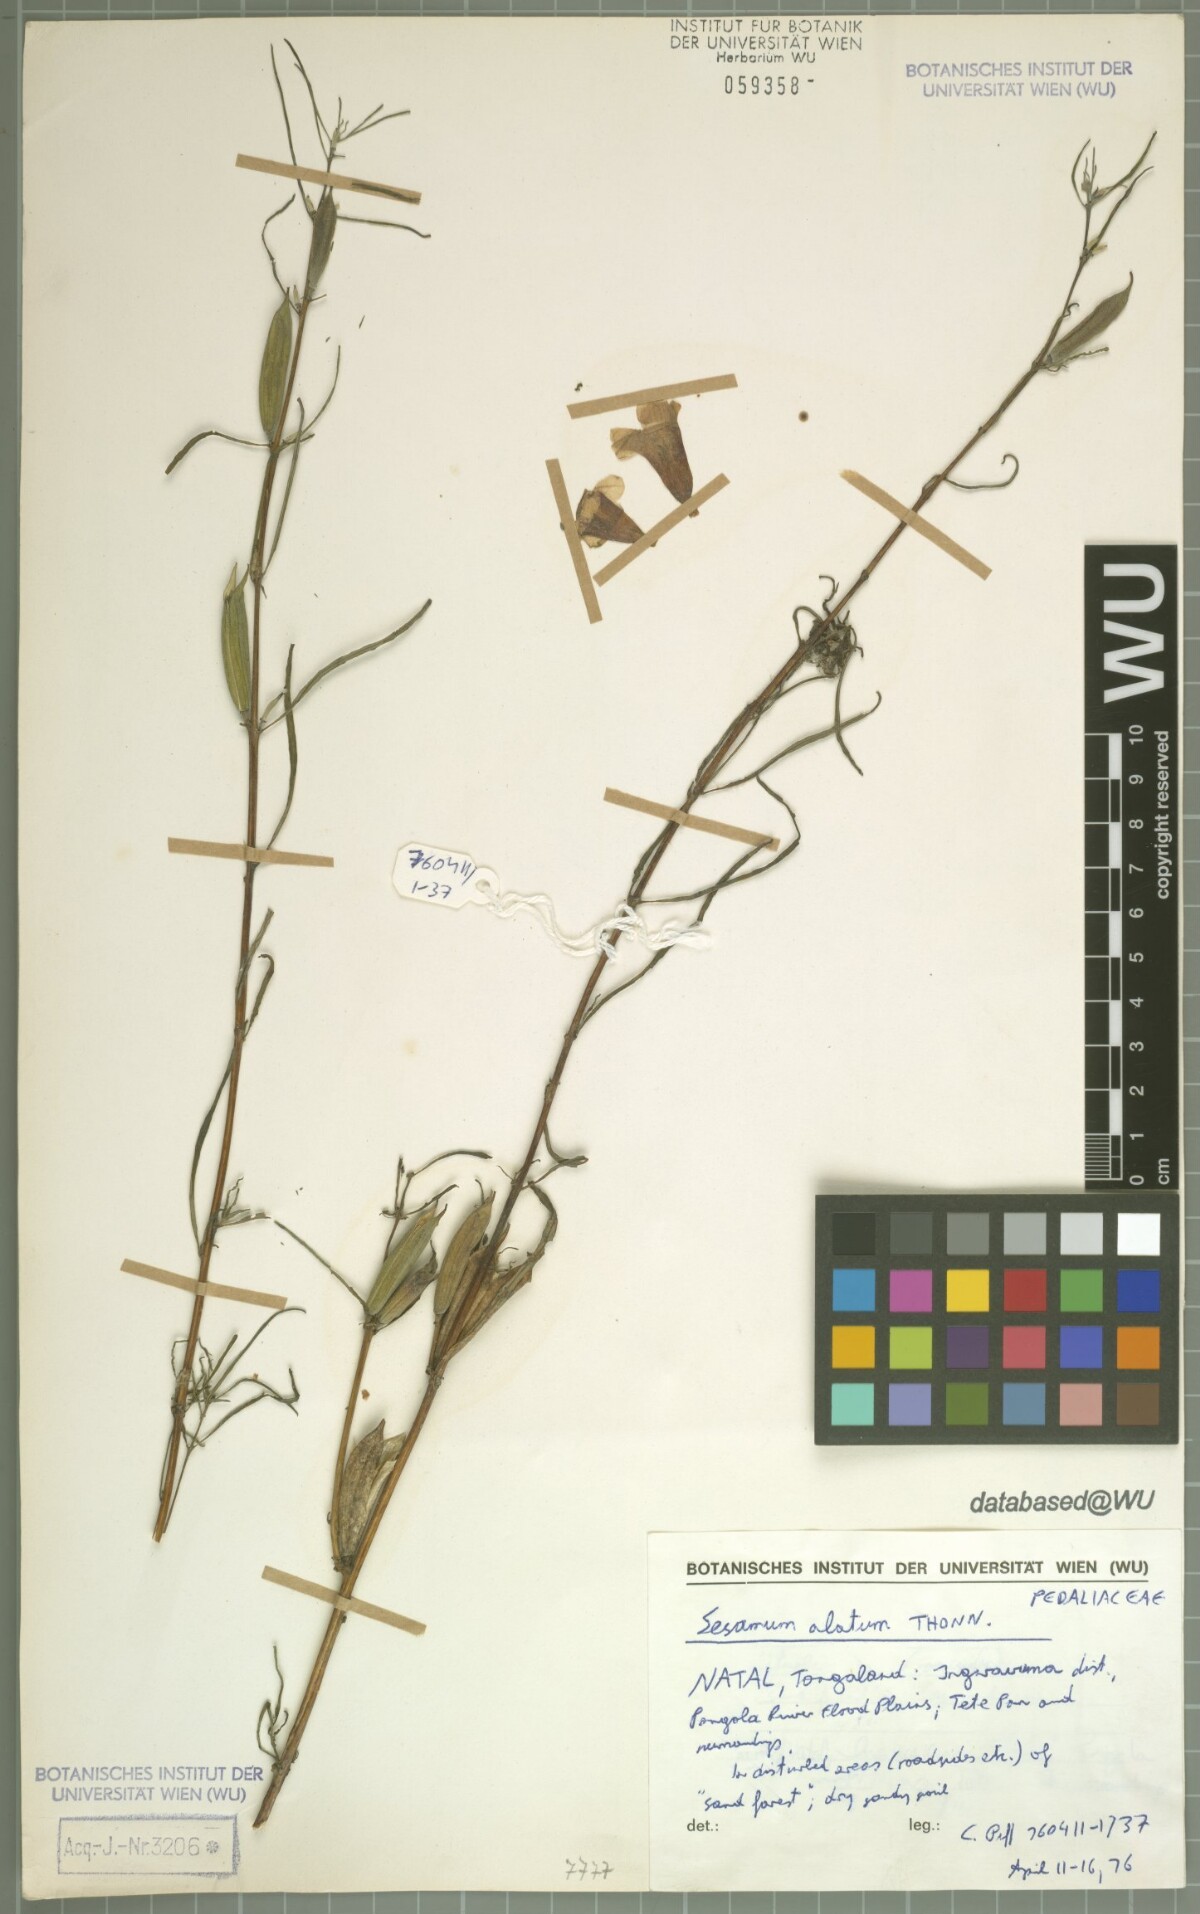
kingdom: Plantae
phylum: Tracheophyta
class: Magnoliopsida
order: Lamiales
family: Pedaliaceae
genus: Sesamum
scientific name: Sesamum alatum
